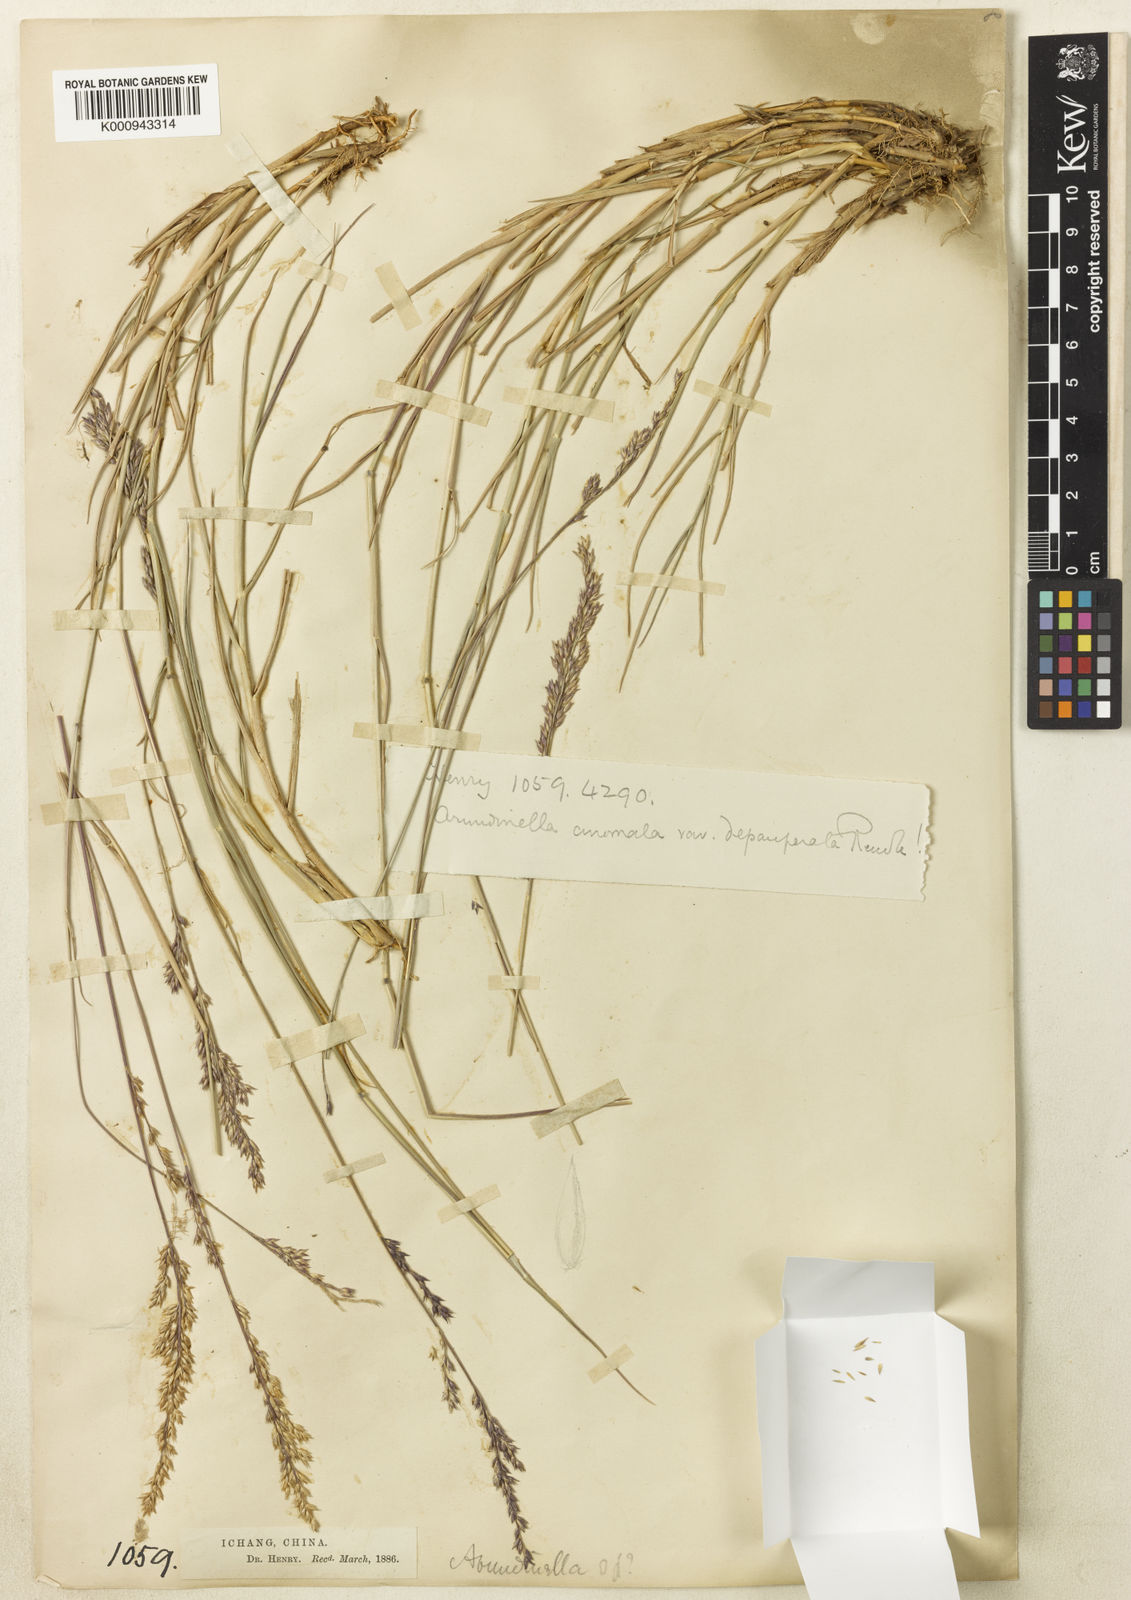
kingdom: Plantae
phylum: Tracheophyta
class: Liliopsida
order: Poales
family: Poaceae
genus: Arundinella
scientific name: Arundinella hirta
